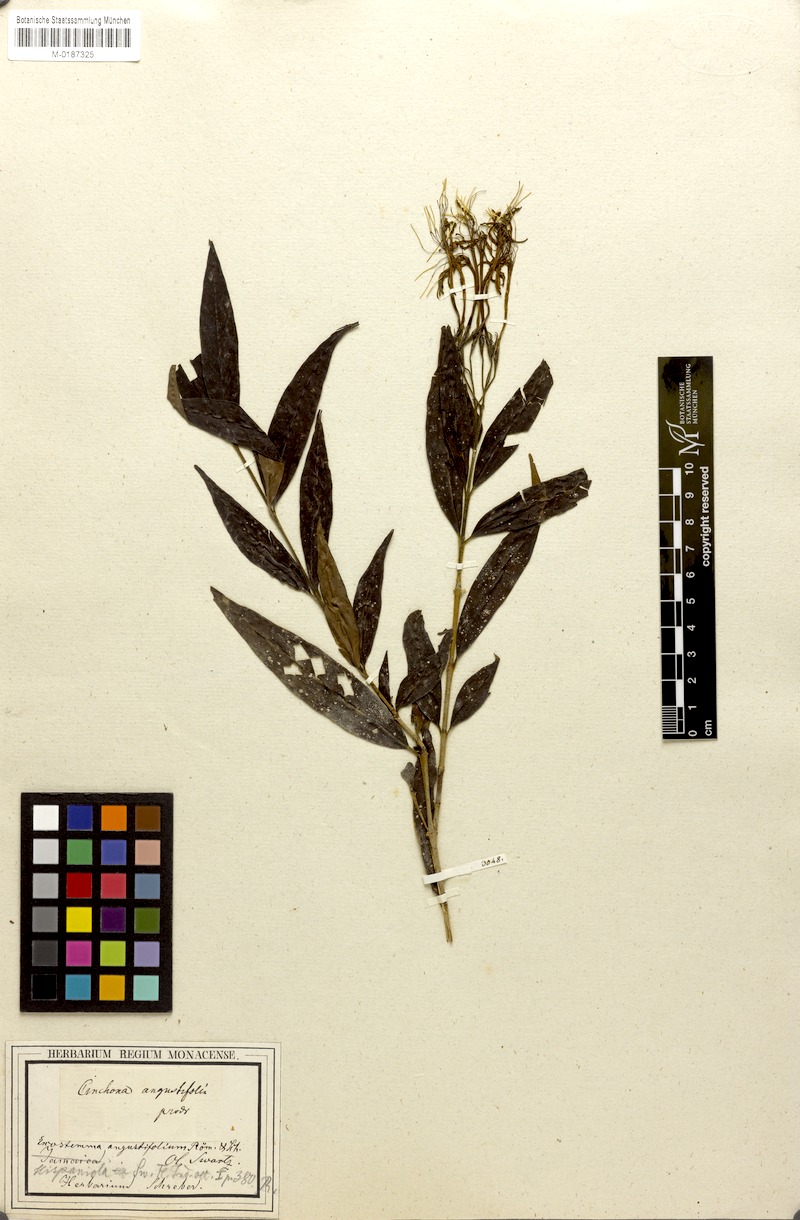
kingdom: Plantae
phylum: Tracheophyta
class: Magnoliopsida
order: Gentianales
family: Rubiaceae
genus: Solenandra
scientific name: Solenandra angustifolia
